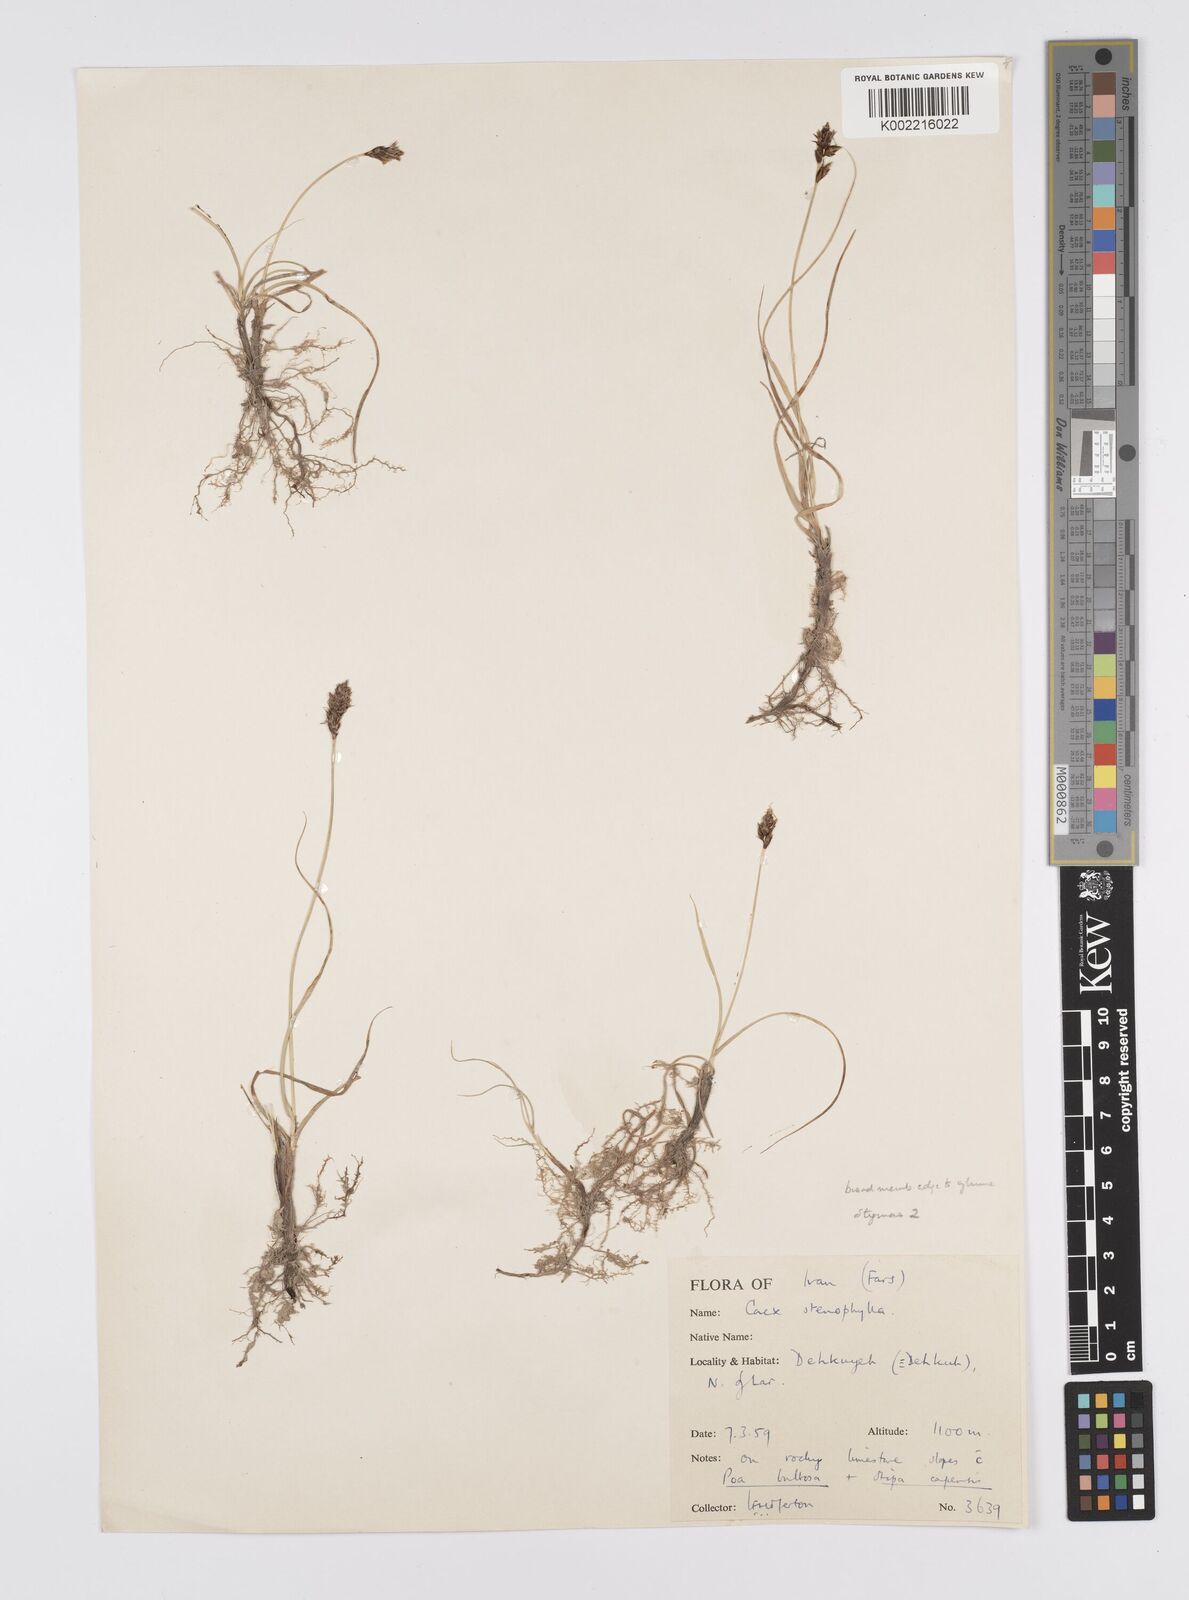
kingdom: Plantae
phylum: Tracheophyta
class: Liliopsida
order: Poales
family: Cyperaceae
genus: Carex
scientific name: Carex pachystylis
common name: Thick-stem sedge
